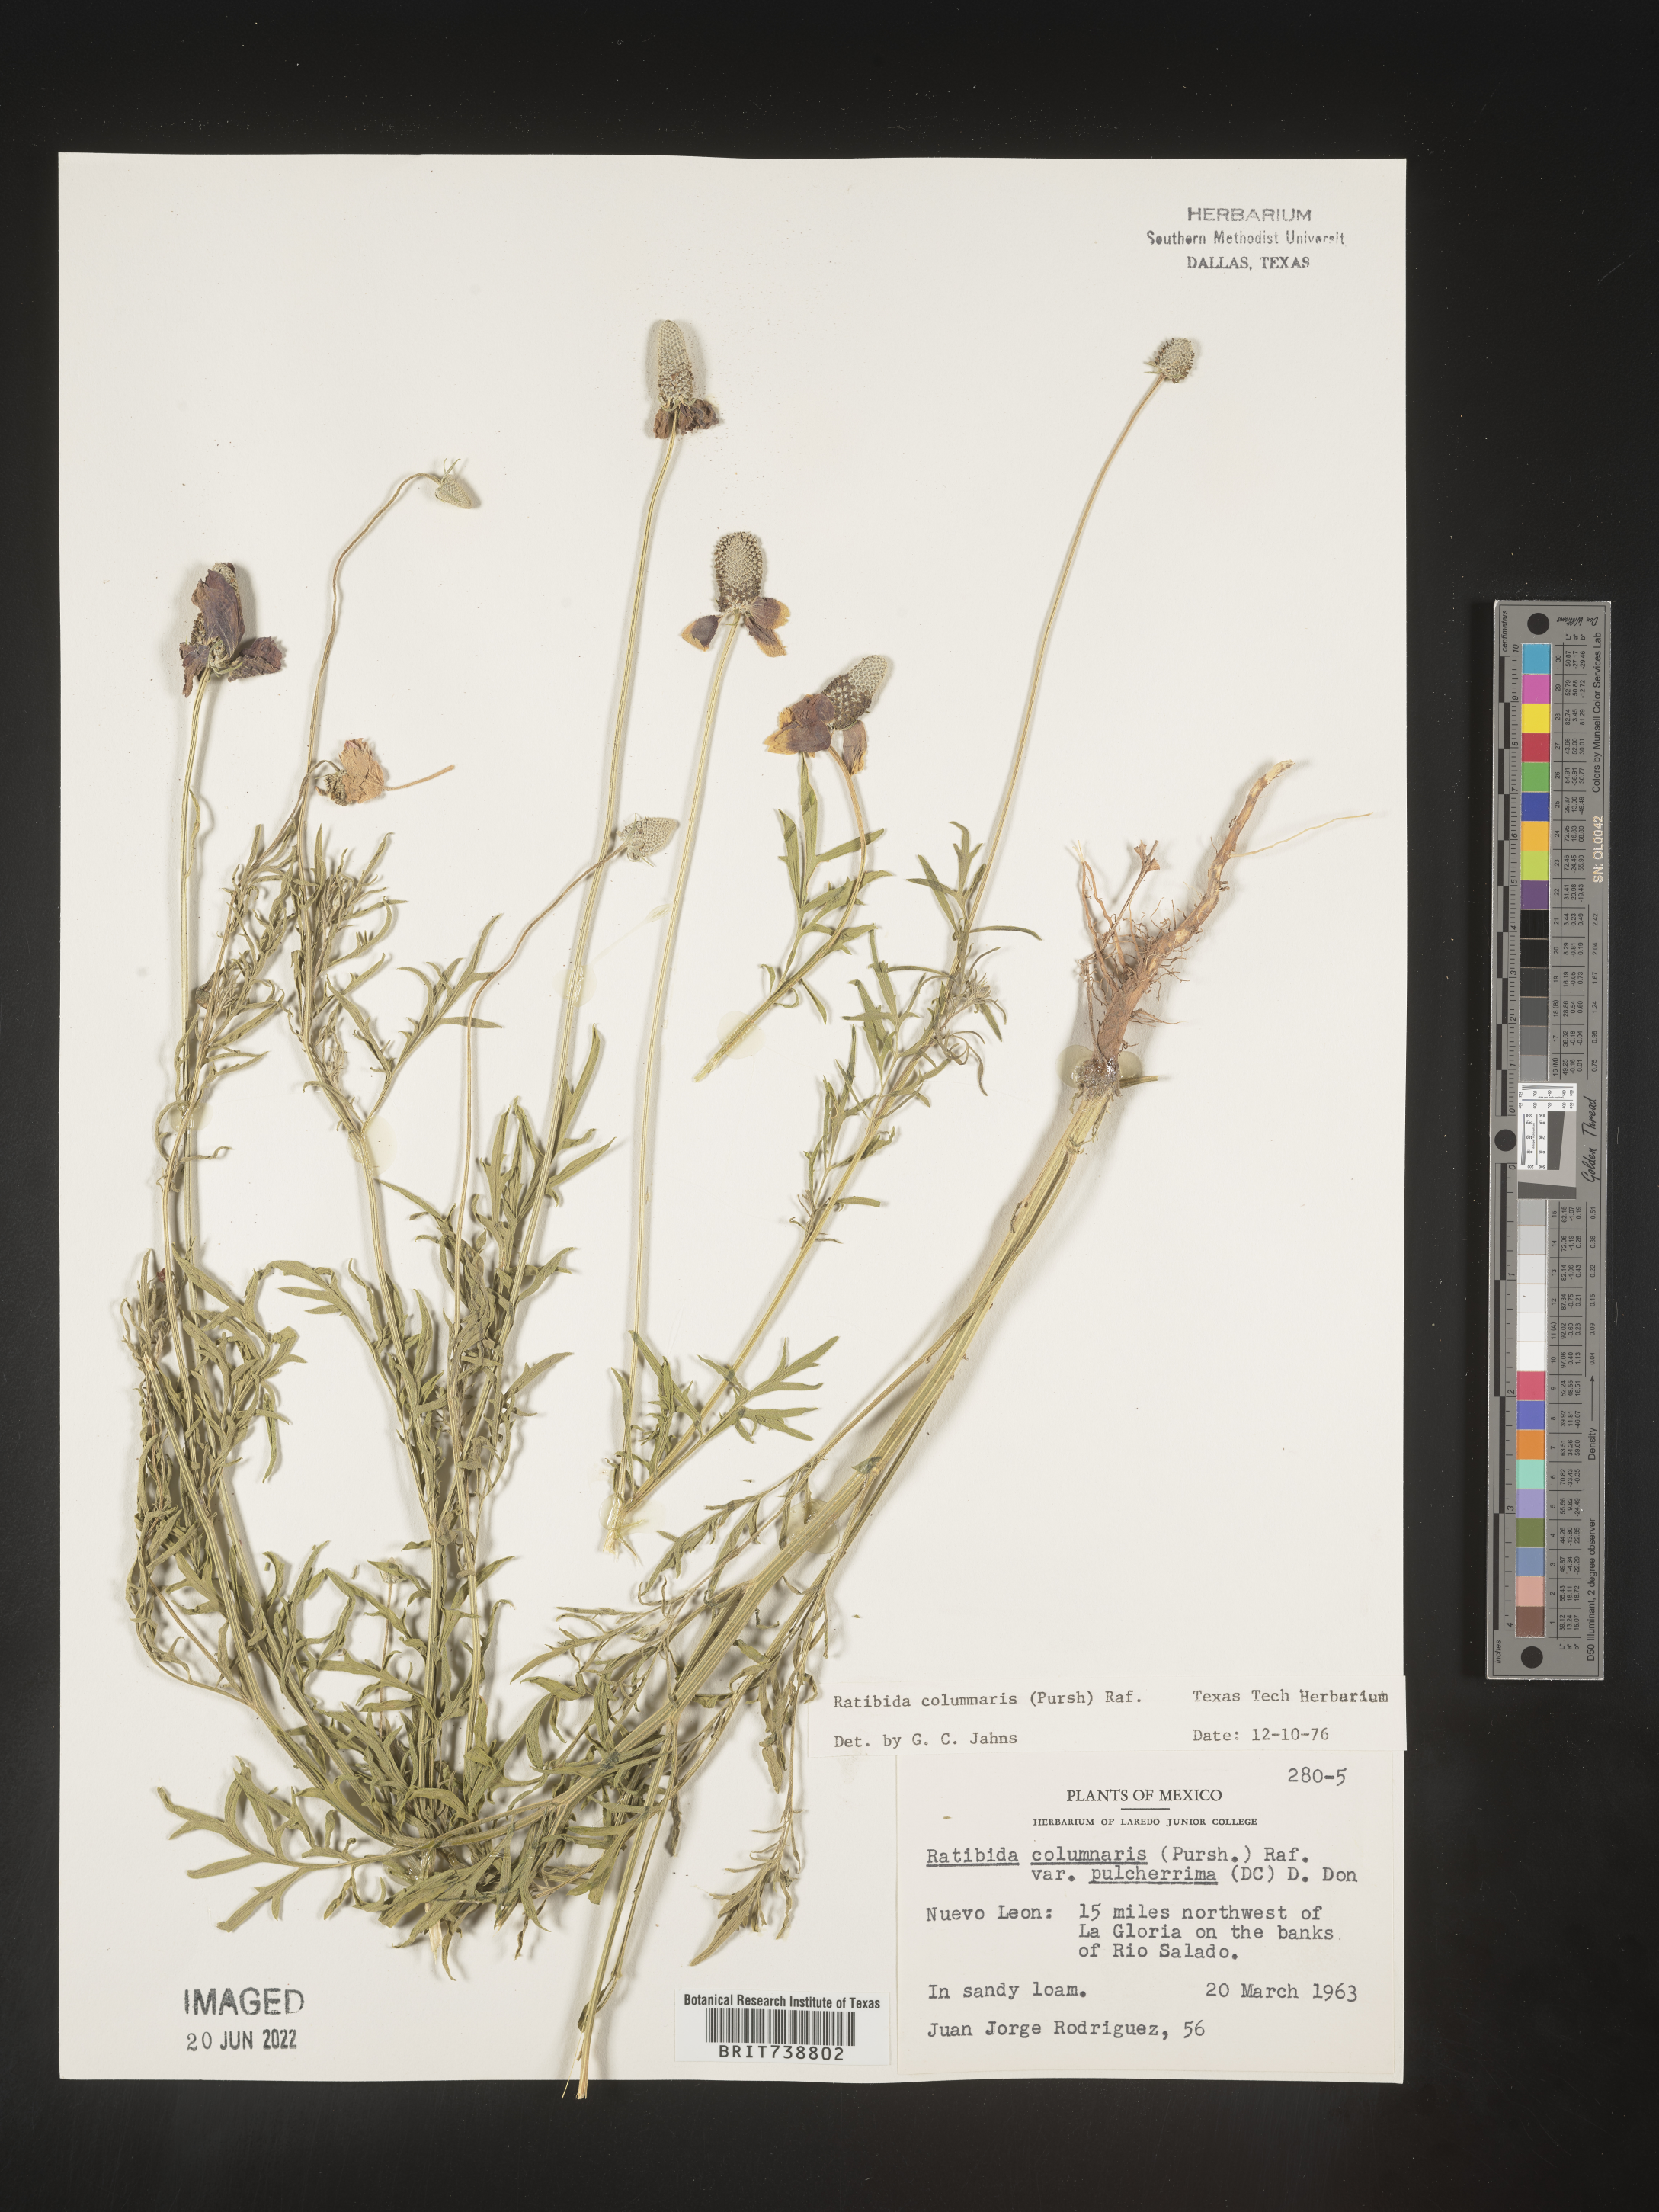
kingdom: Plantae
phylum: Tracheophyta
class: Magnoliopsida
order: Asterales
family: Asteraceae
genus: Ratibida
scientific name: Ratibida
